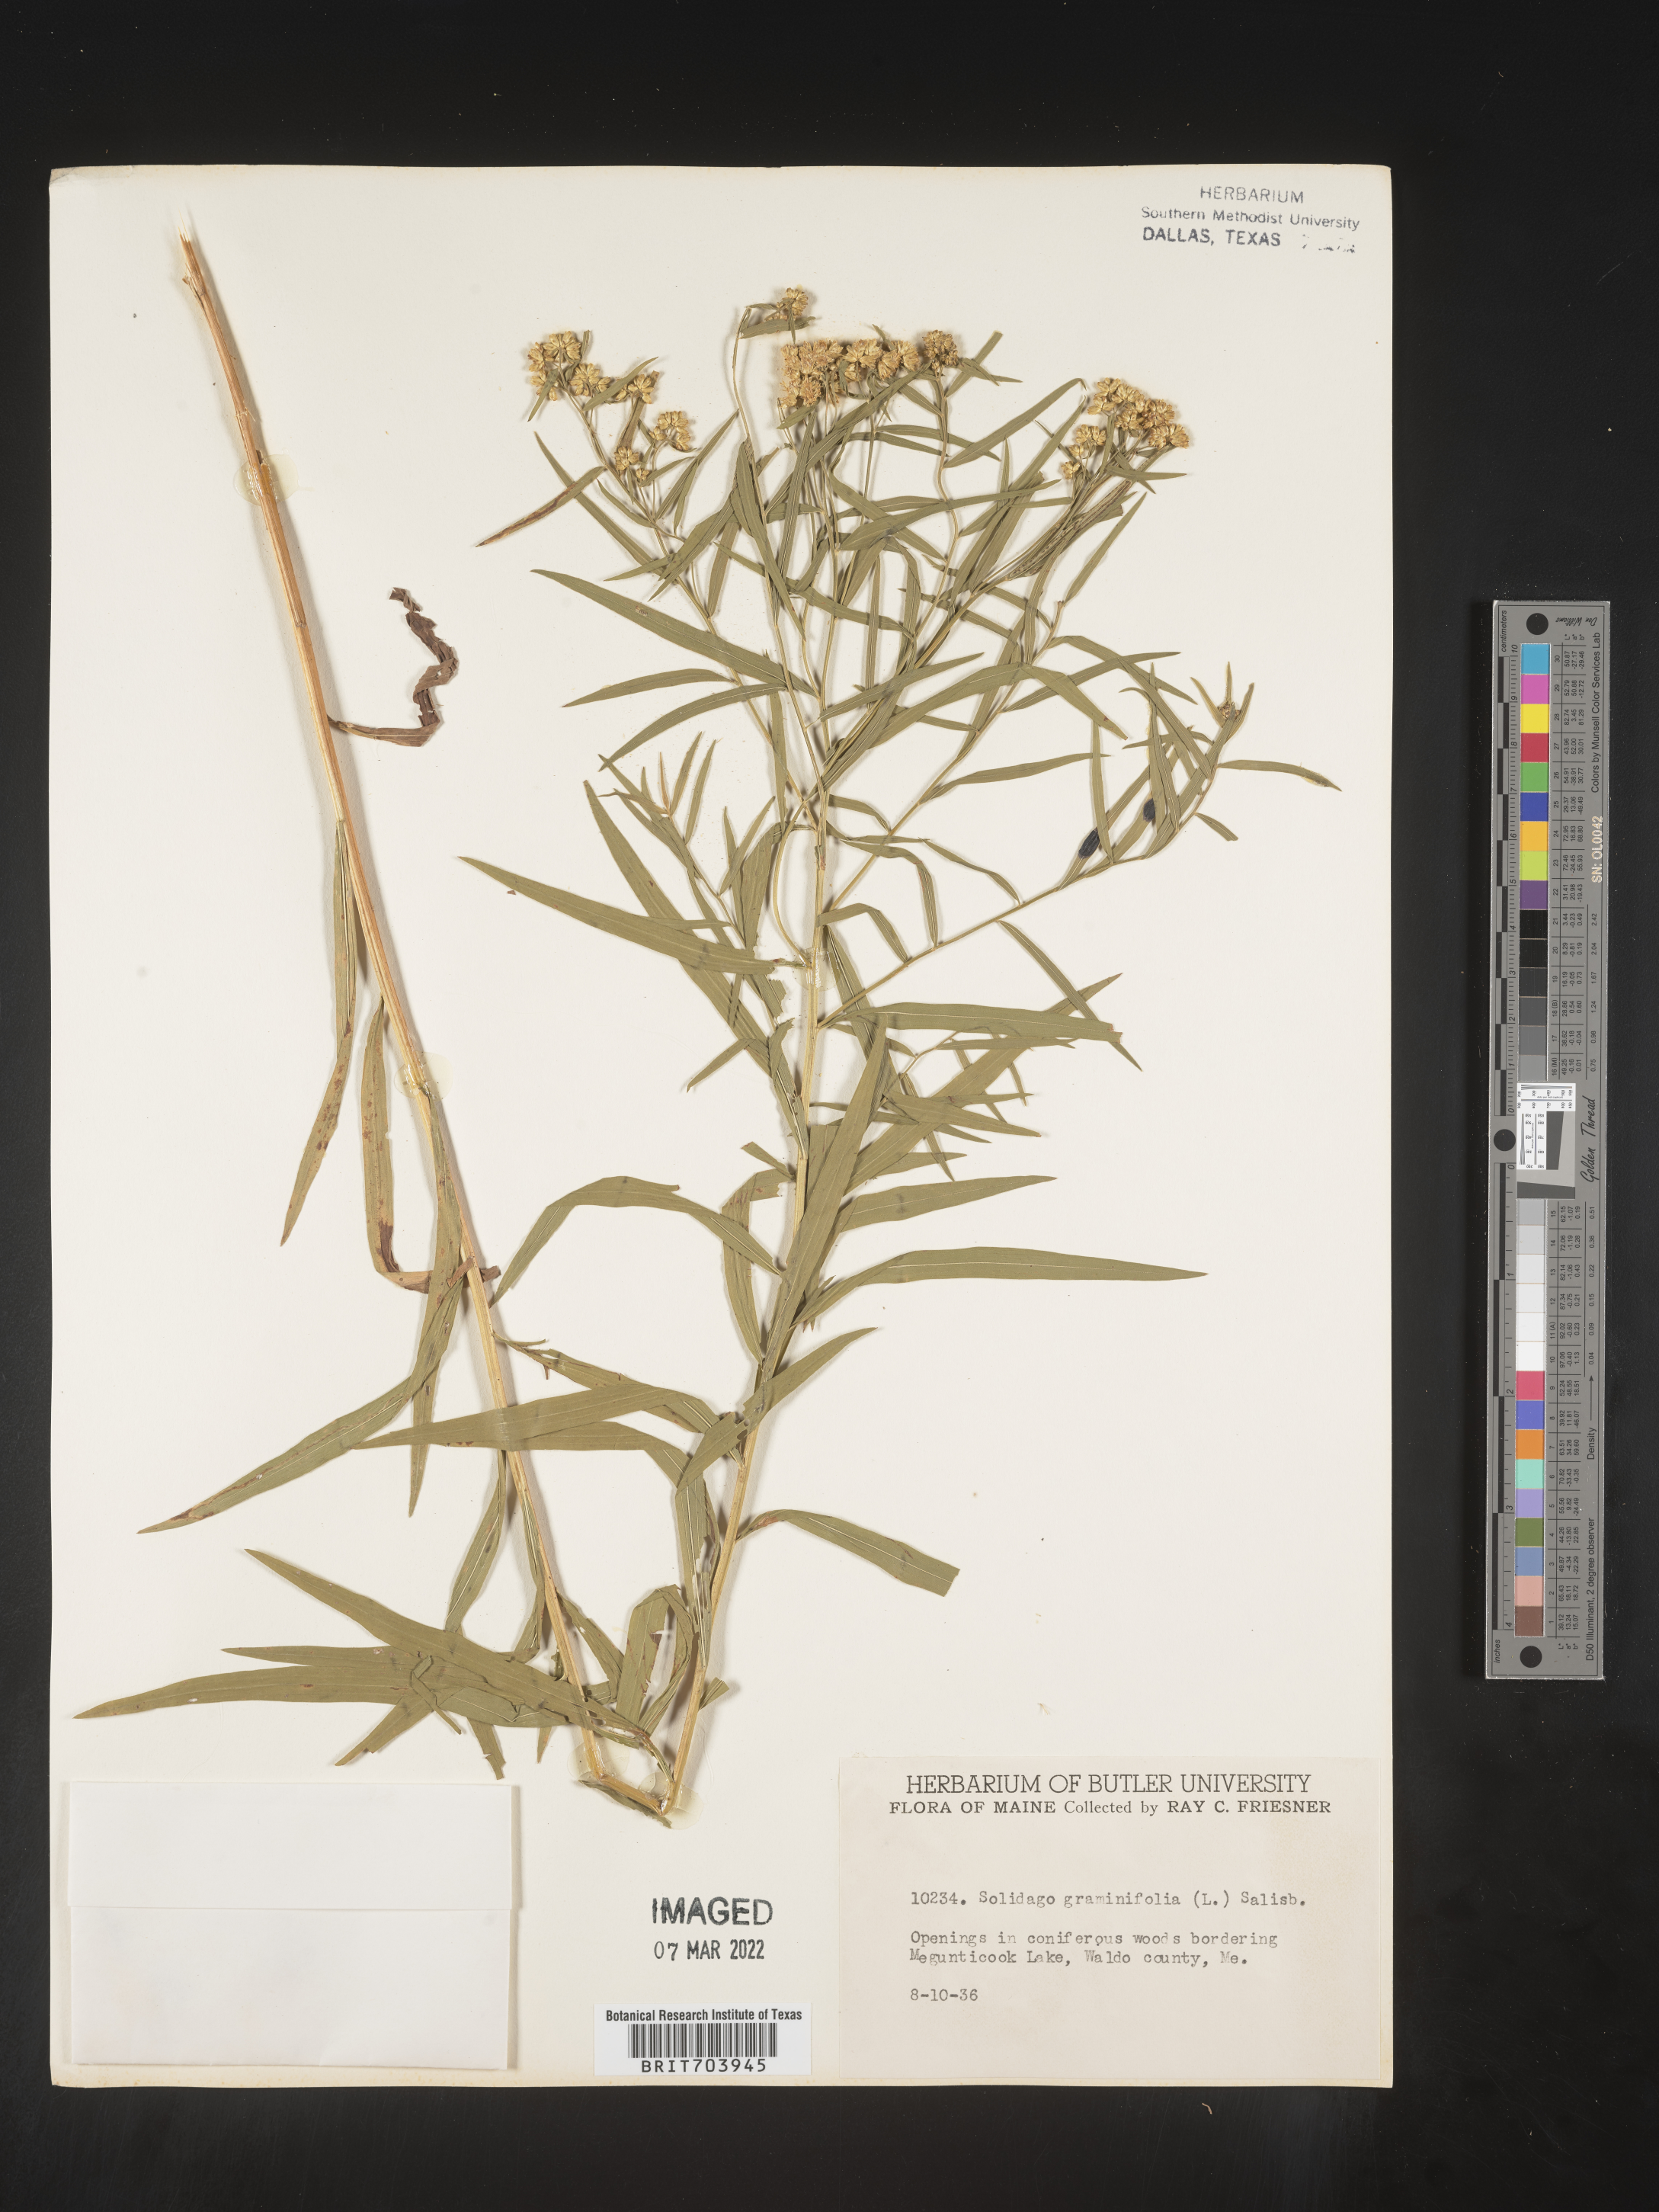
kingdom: Plantae
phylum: Tracheophyta
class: Magnoliopsida
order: Asterales
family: Asteraceae
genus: Euthamia
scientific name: Euthamia graminifolia
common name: Common goldentop
